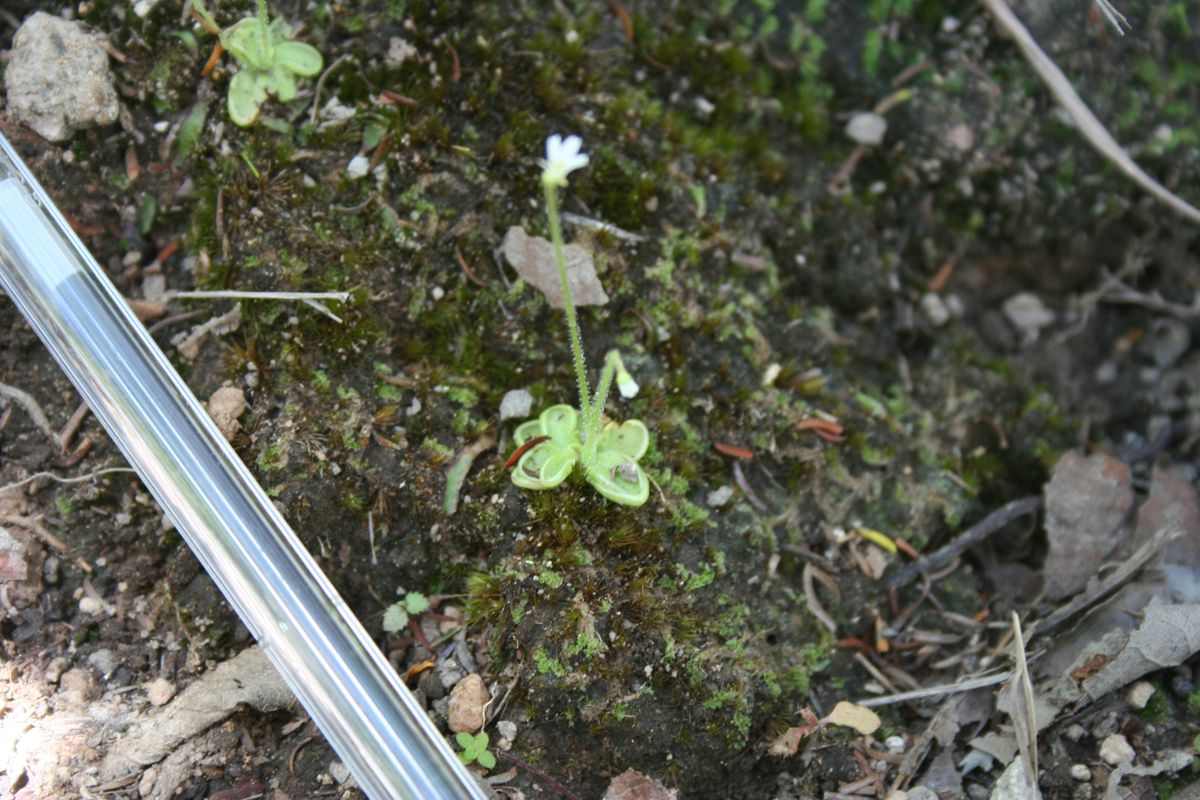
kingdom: Plantae
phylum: Tracheophyta
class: Magnoliopsida
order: Lamiales
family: Lentibulariaceae
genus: Pinguicula
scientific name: Pinguicula crenatiloba
